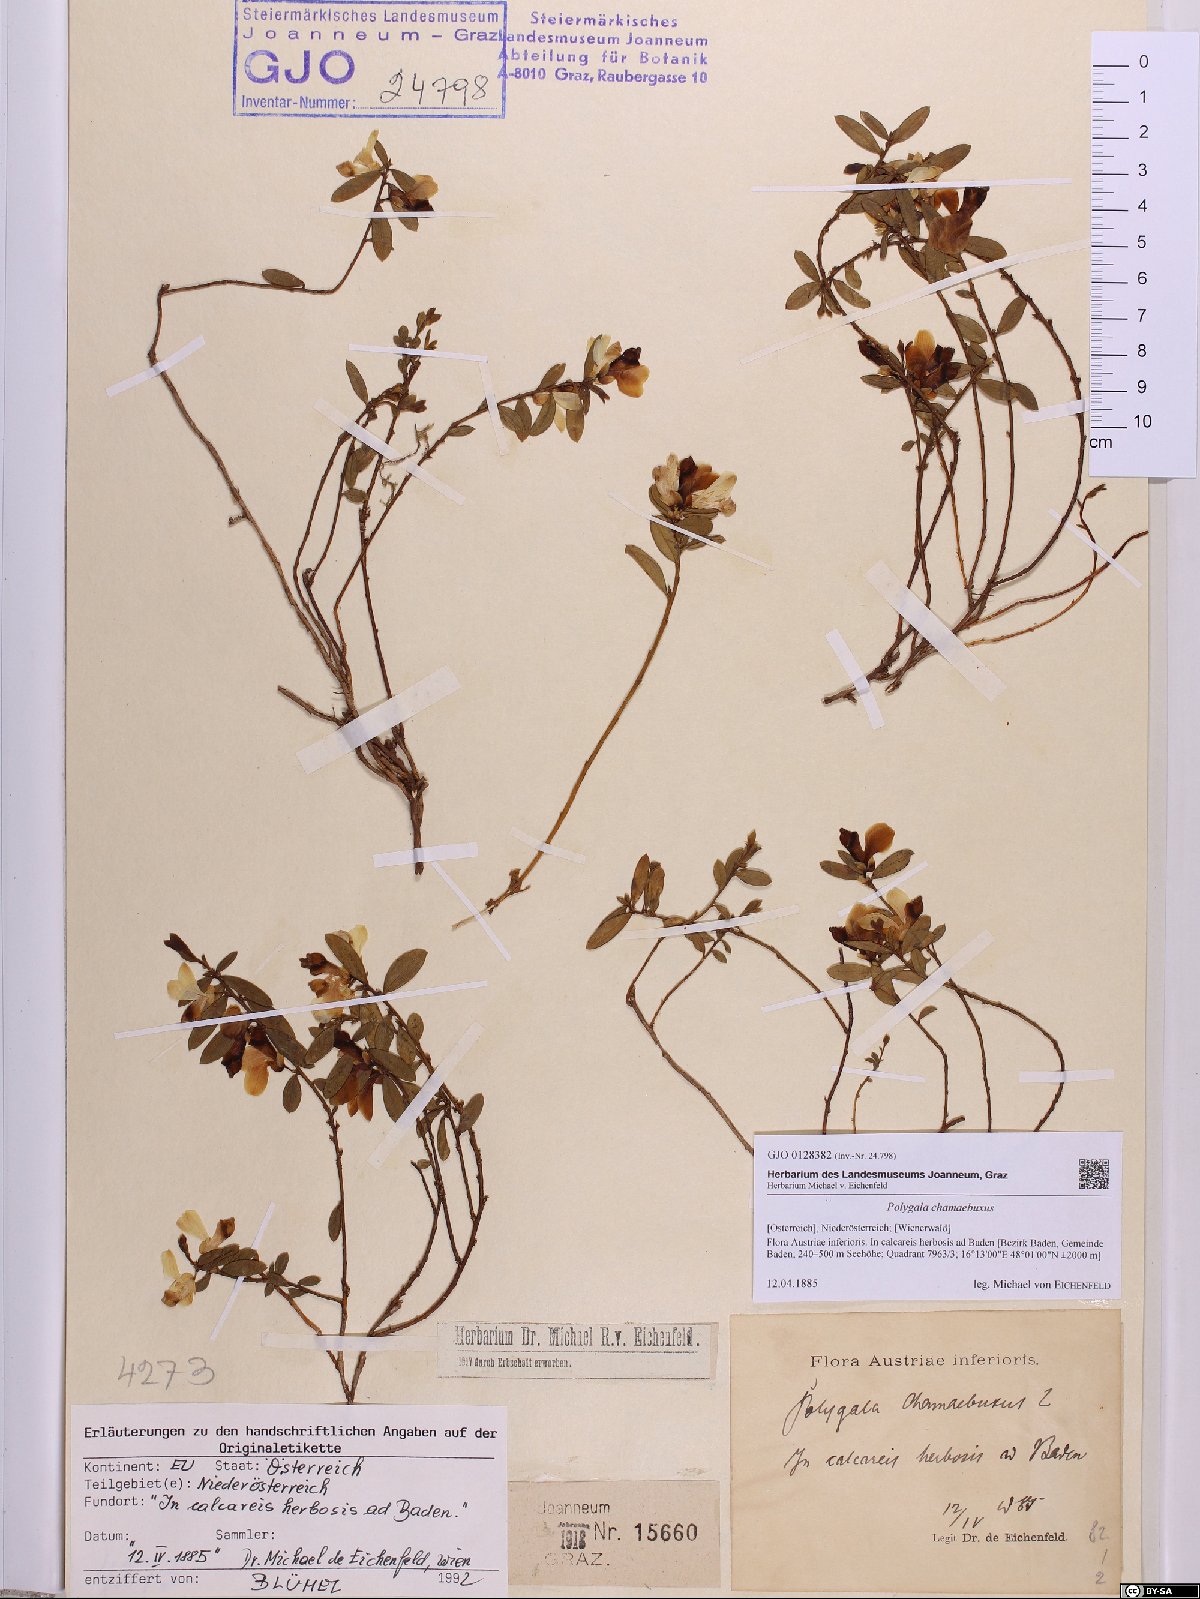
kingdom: Plantae
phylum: Tracheophyta
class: Magnoliopsida
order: Fabales
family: Polygalaceae
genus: Polygaloides
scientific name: Polygaloides chamaebuxus
